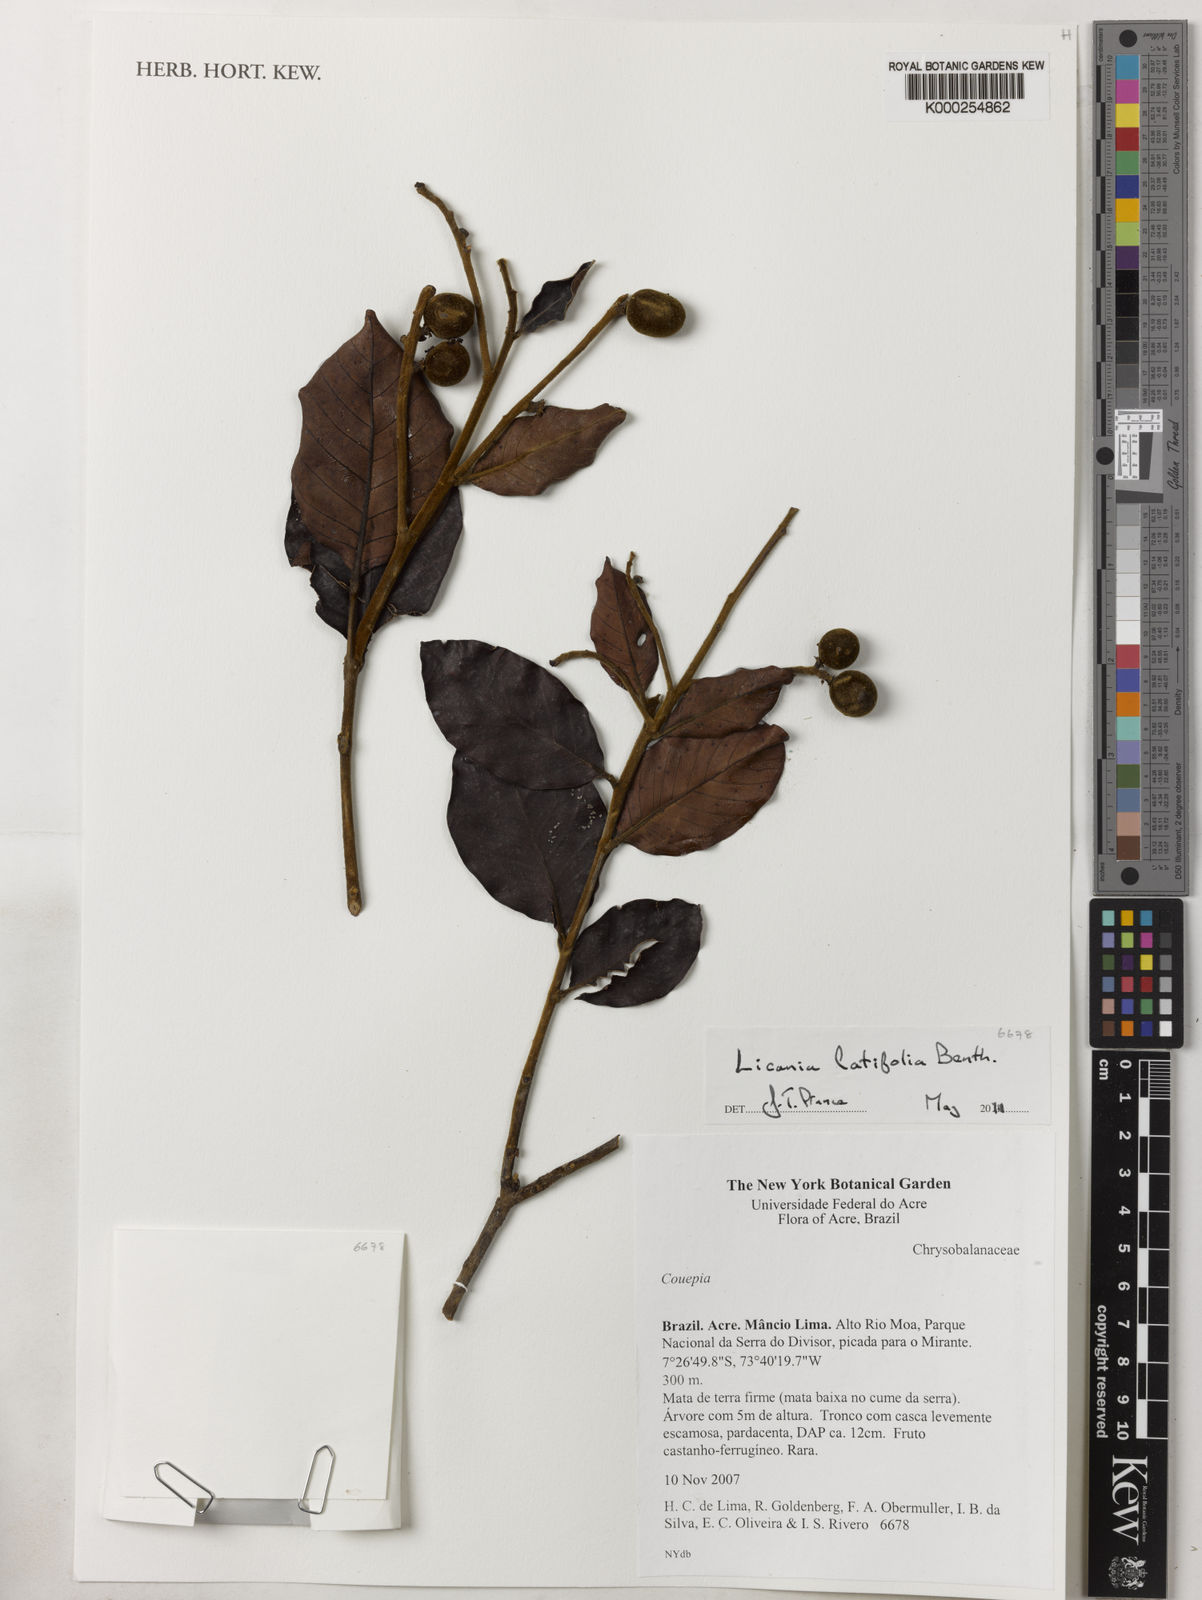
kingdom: Plantae
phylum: Tracheophyta
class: Magnoliopsida
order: Malpighiales
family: Chrysobalanaceae
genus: Hymenopus
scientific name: Hymenopus latifolius
